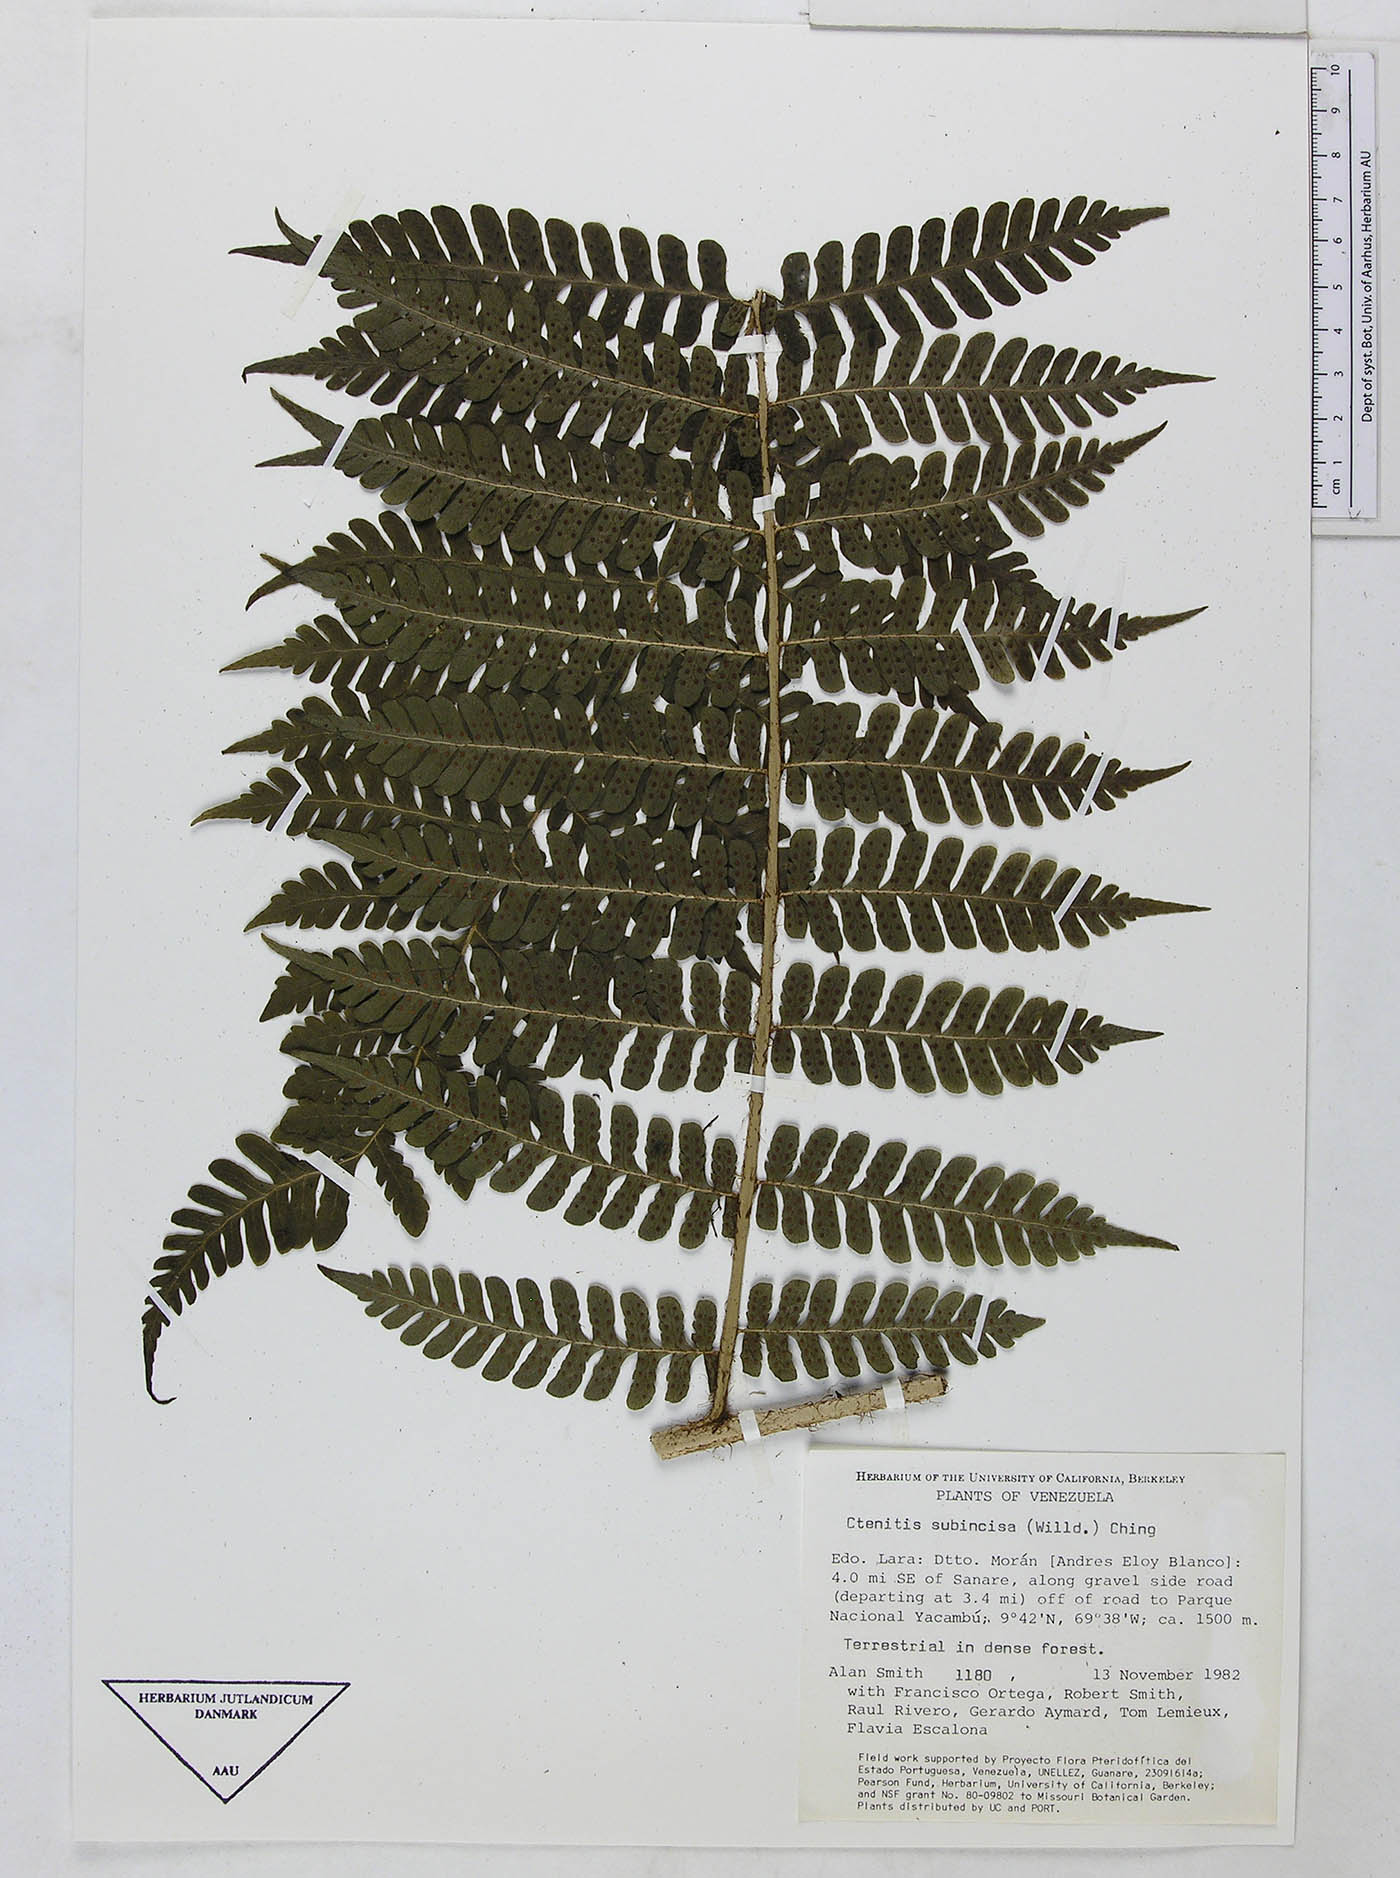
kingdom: Plantae
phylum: Tracheophyta
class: Polypodiopsida
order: Polypodiales
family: Dryopteridaceae
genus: Megalastrum
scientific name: Megalastrum subincisum
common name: Jagleaf junglefern
